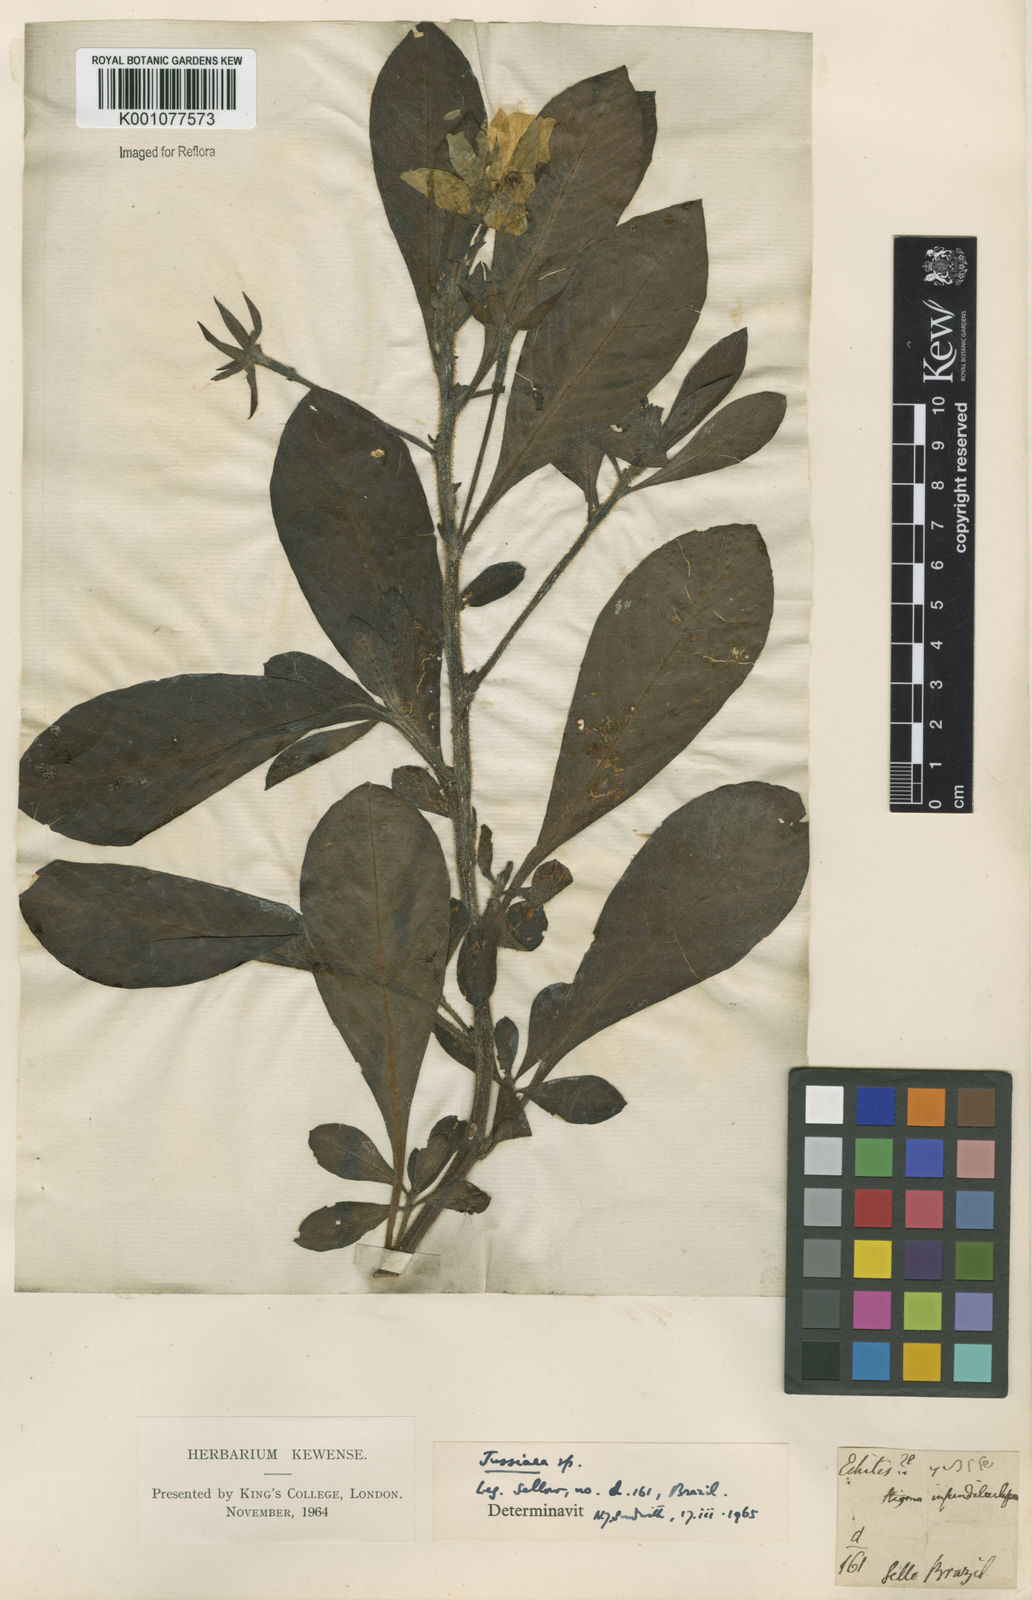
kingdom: Plantae
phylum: Tracheophyta
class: Magnoliopsida
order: Myrtales
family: Onagraceae
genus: Ludwigia
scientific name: Ludwigia
